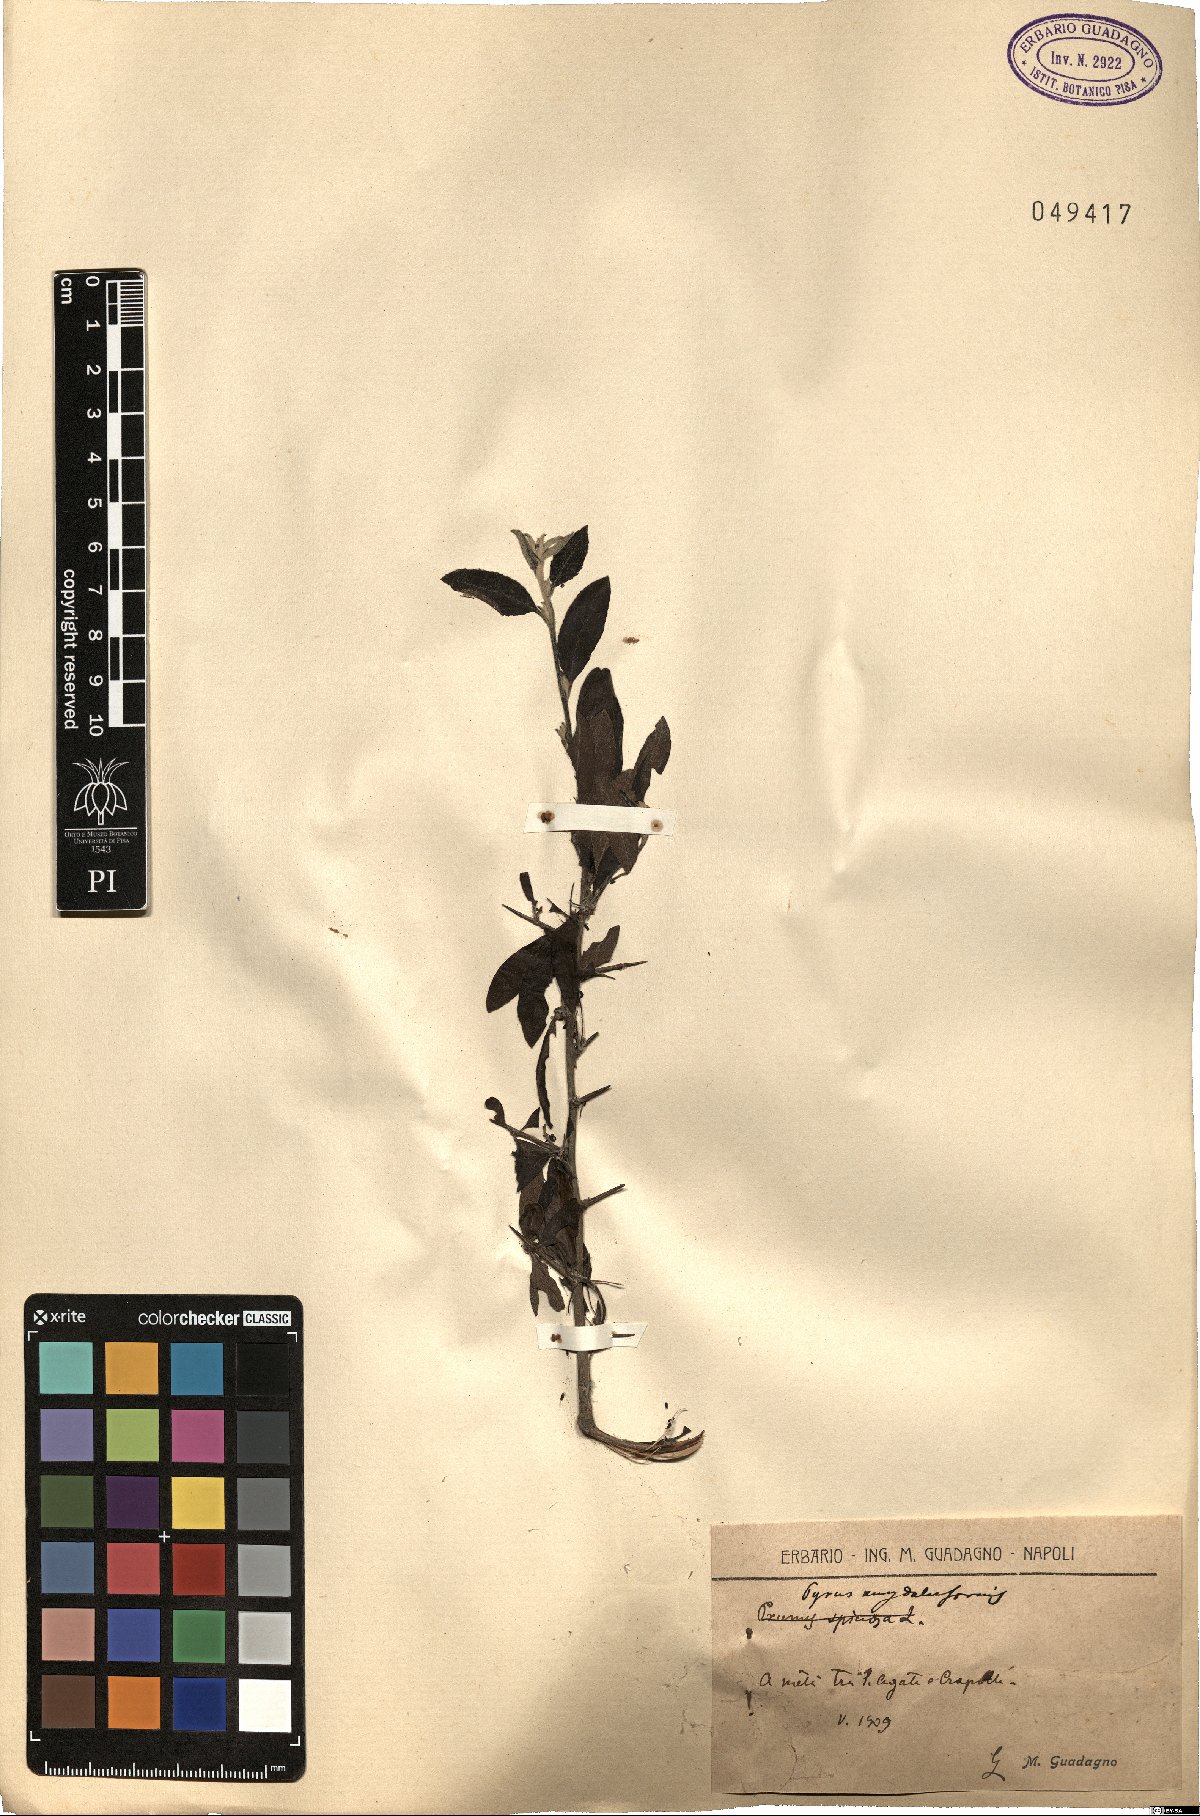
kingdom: Plantae
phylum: Tracheophyta
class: Magnoliopsida
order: Rosales
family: Rosaceae
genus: Pyrus
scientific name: Pyrus spinosa
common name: Almond-leaf pear
